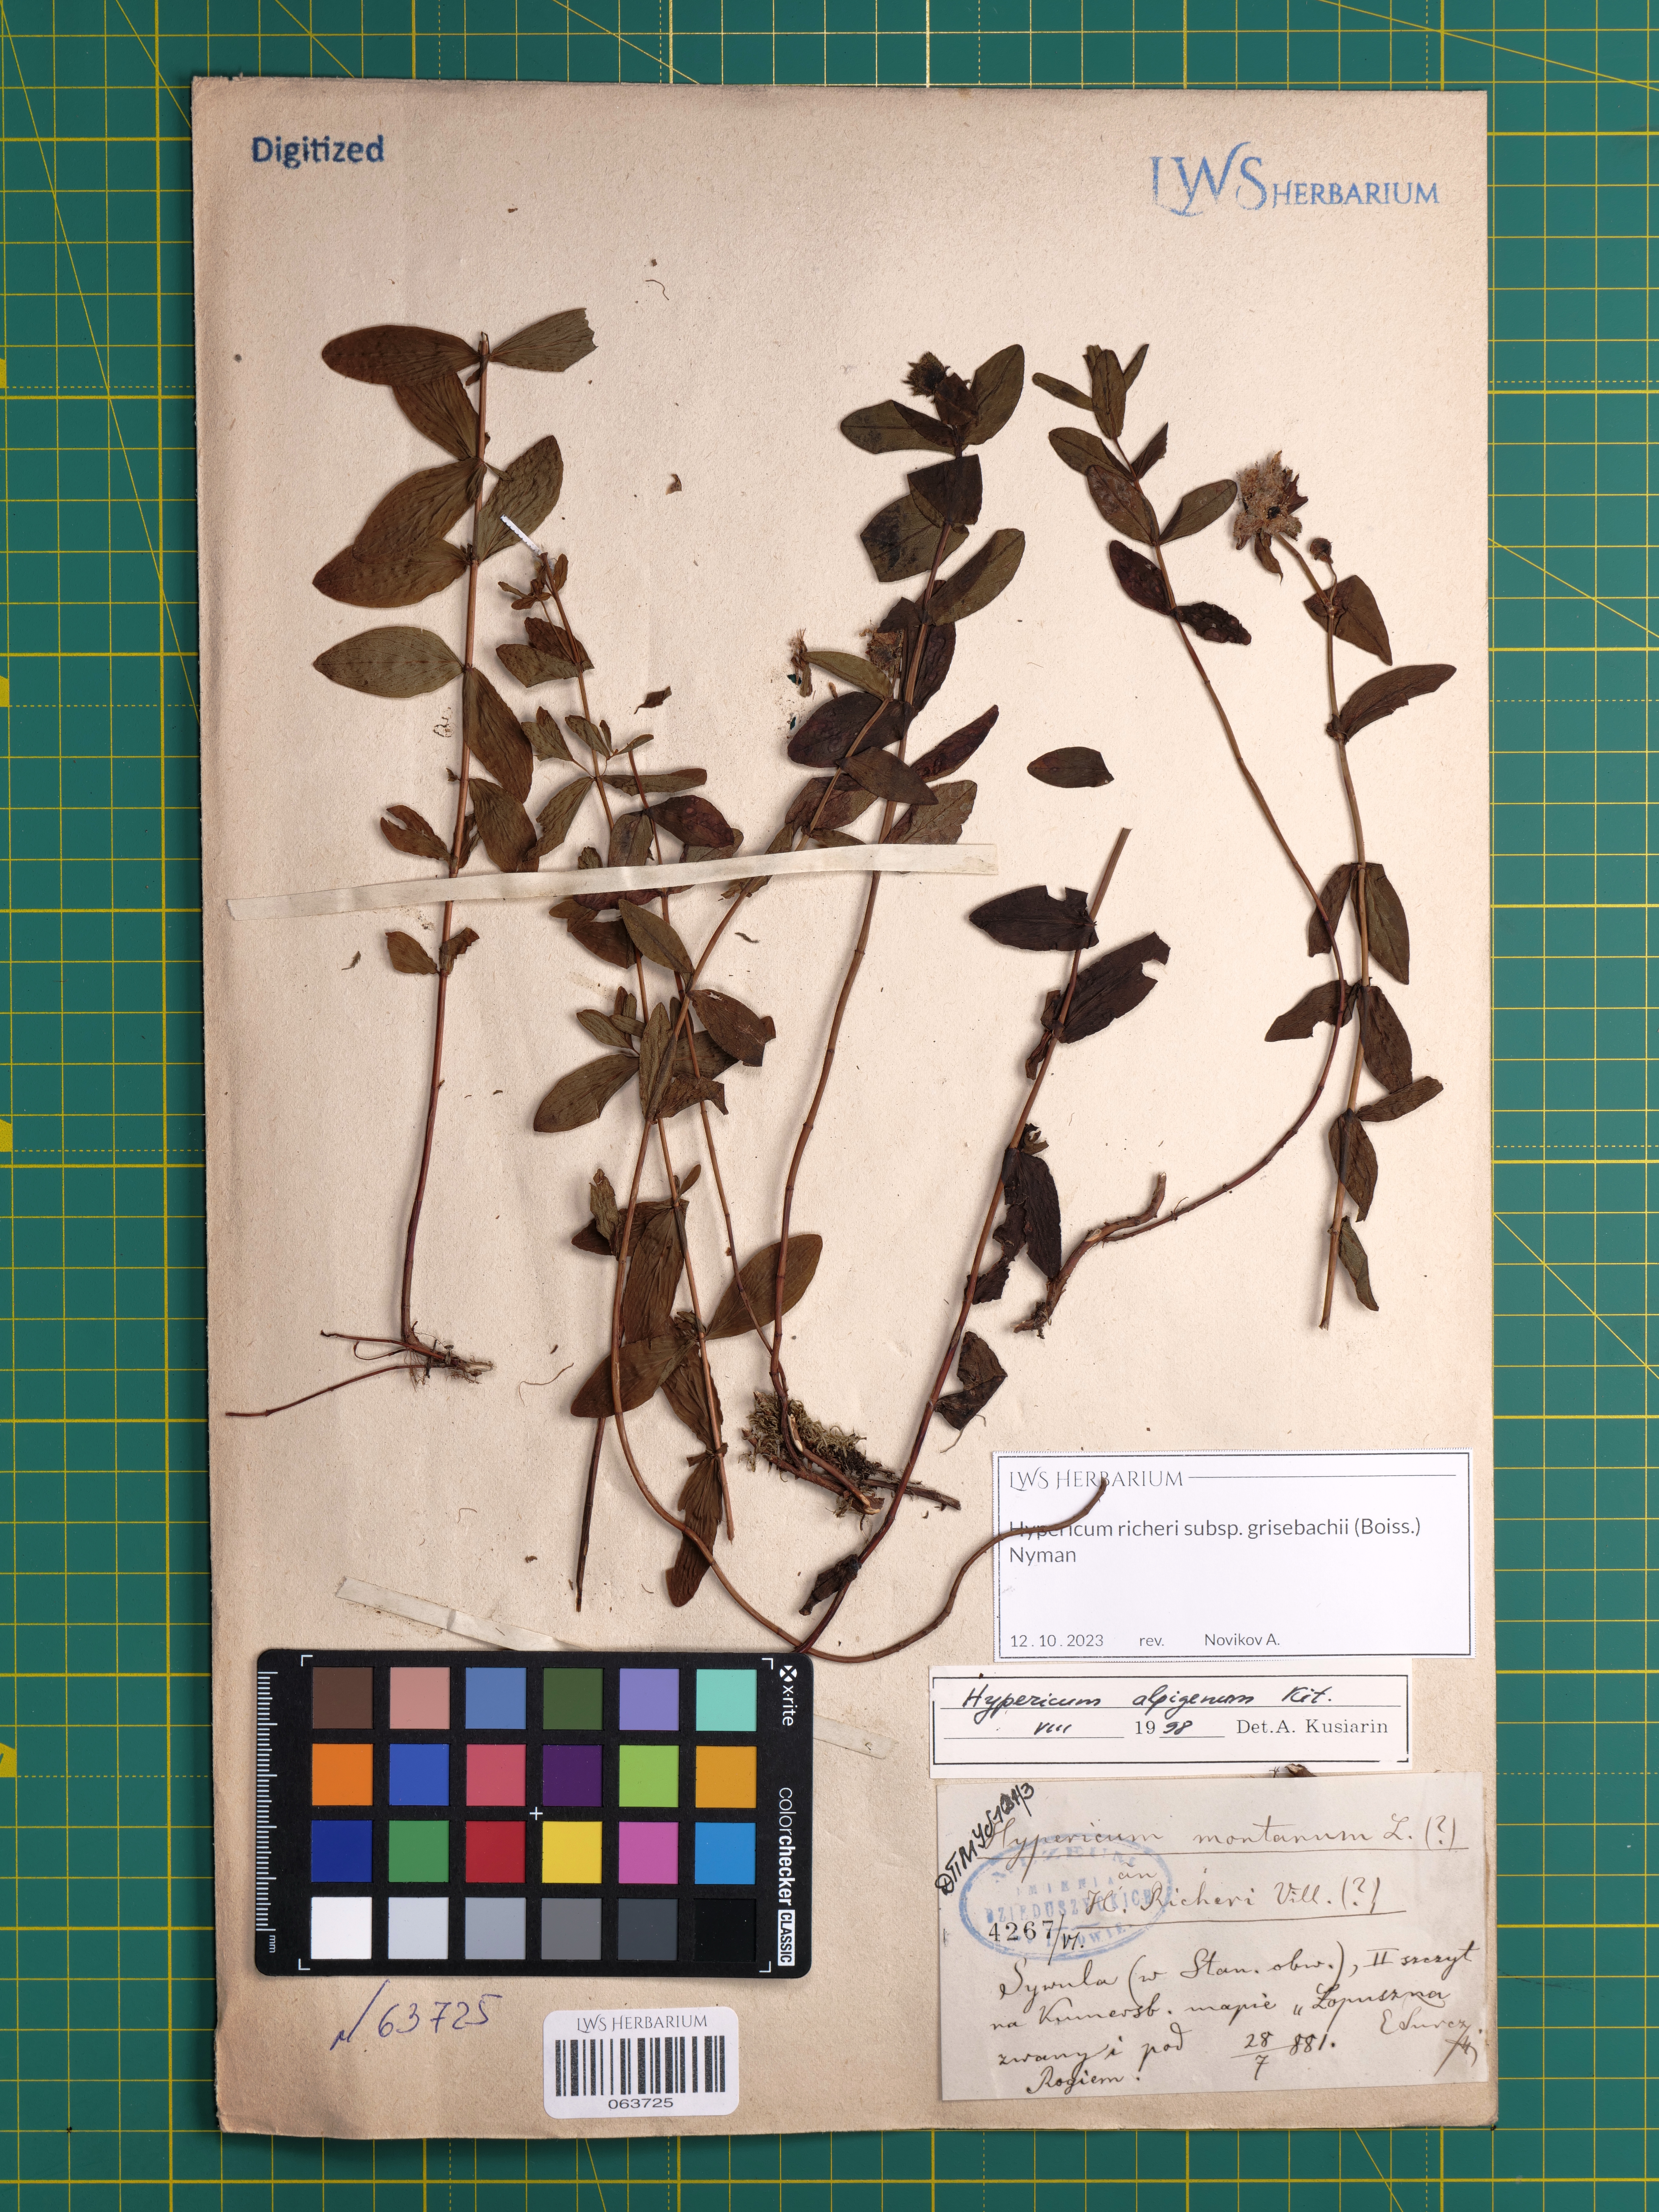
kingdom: Plantae
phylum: Tracheophyta
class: Magnoliopsida
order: Malpighiales
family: Hypericaceae
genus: Hypericum
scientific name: Hypericum richeri
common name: Alpine st john's-wort
